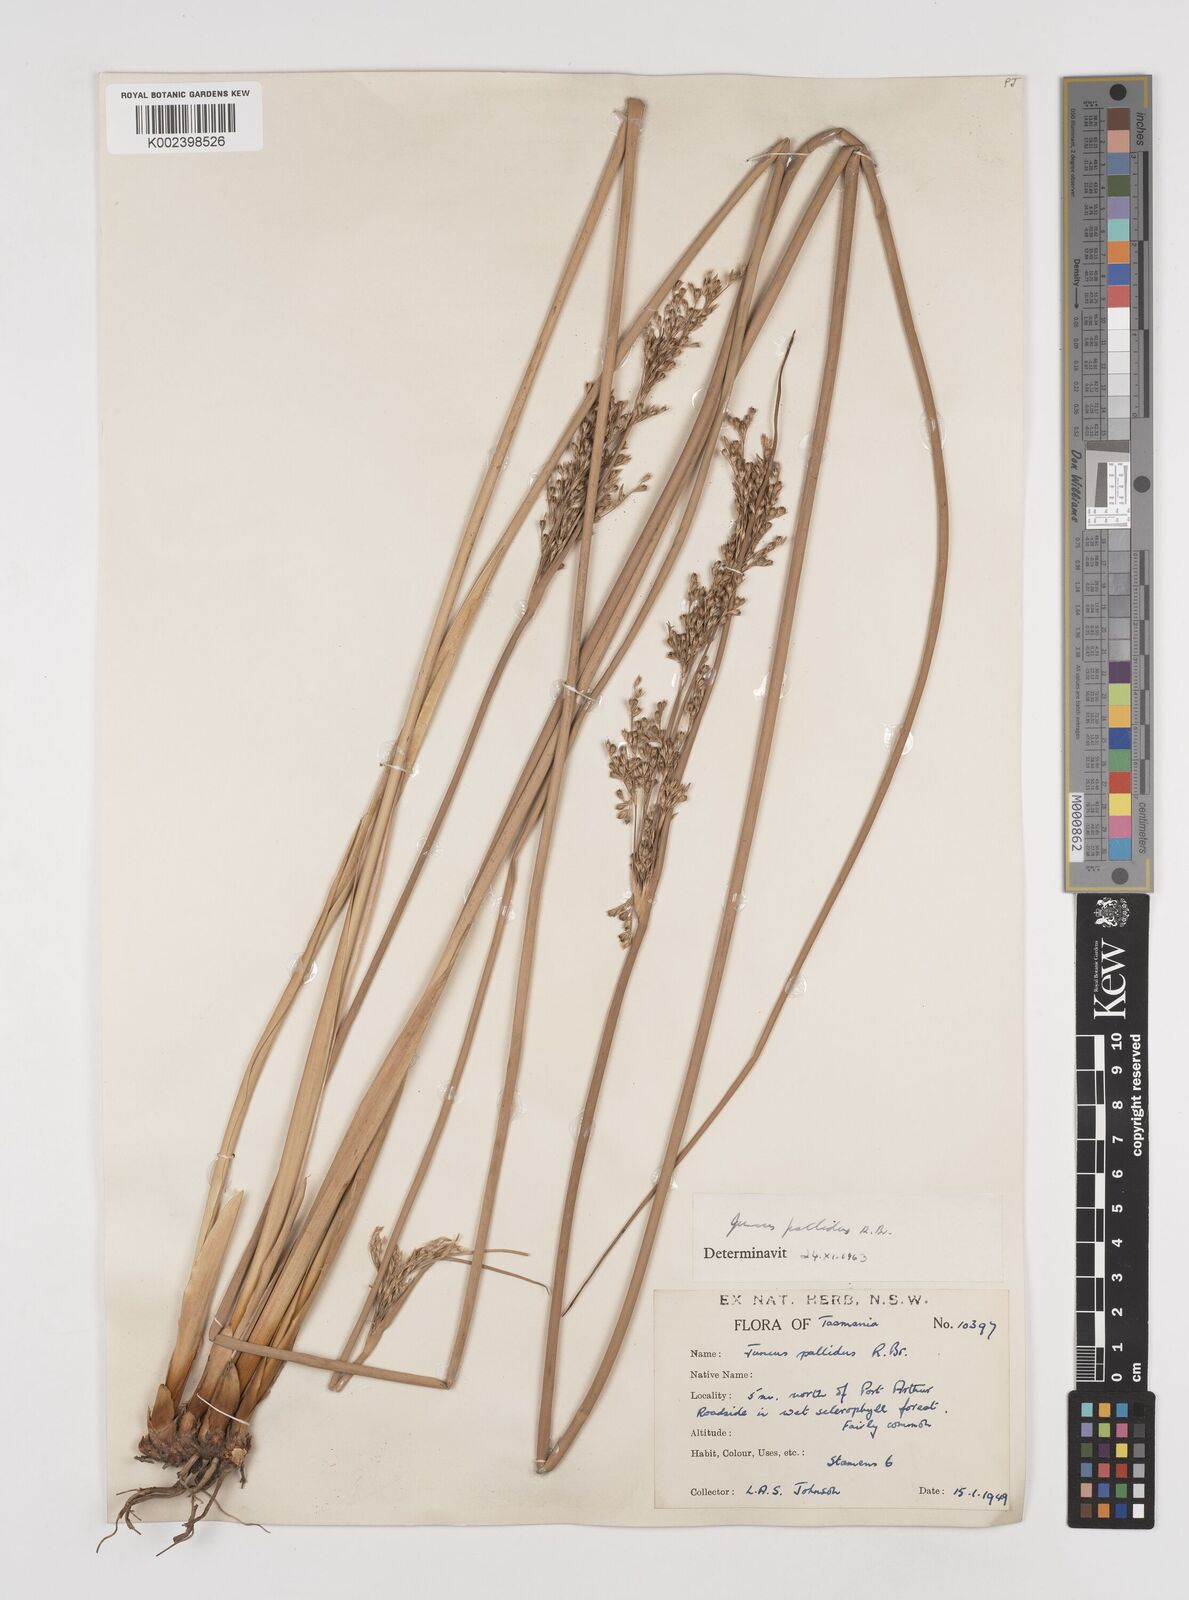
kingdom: Plantae
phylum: Tracheophyta
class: Liliopsida
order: Poales
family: Juncaceae
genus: Juncus
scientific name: Juncus pallidus
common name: Great soft-rush
